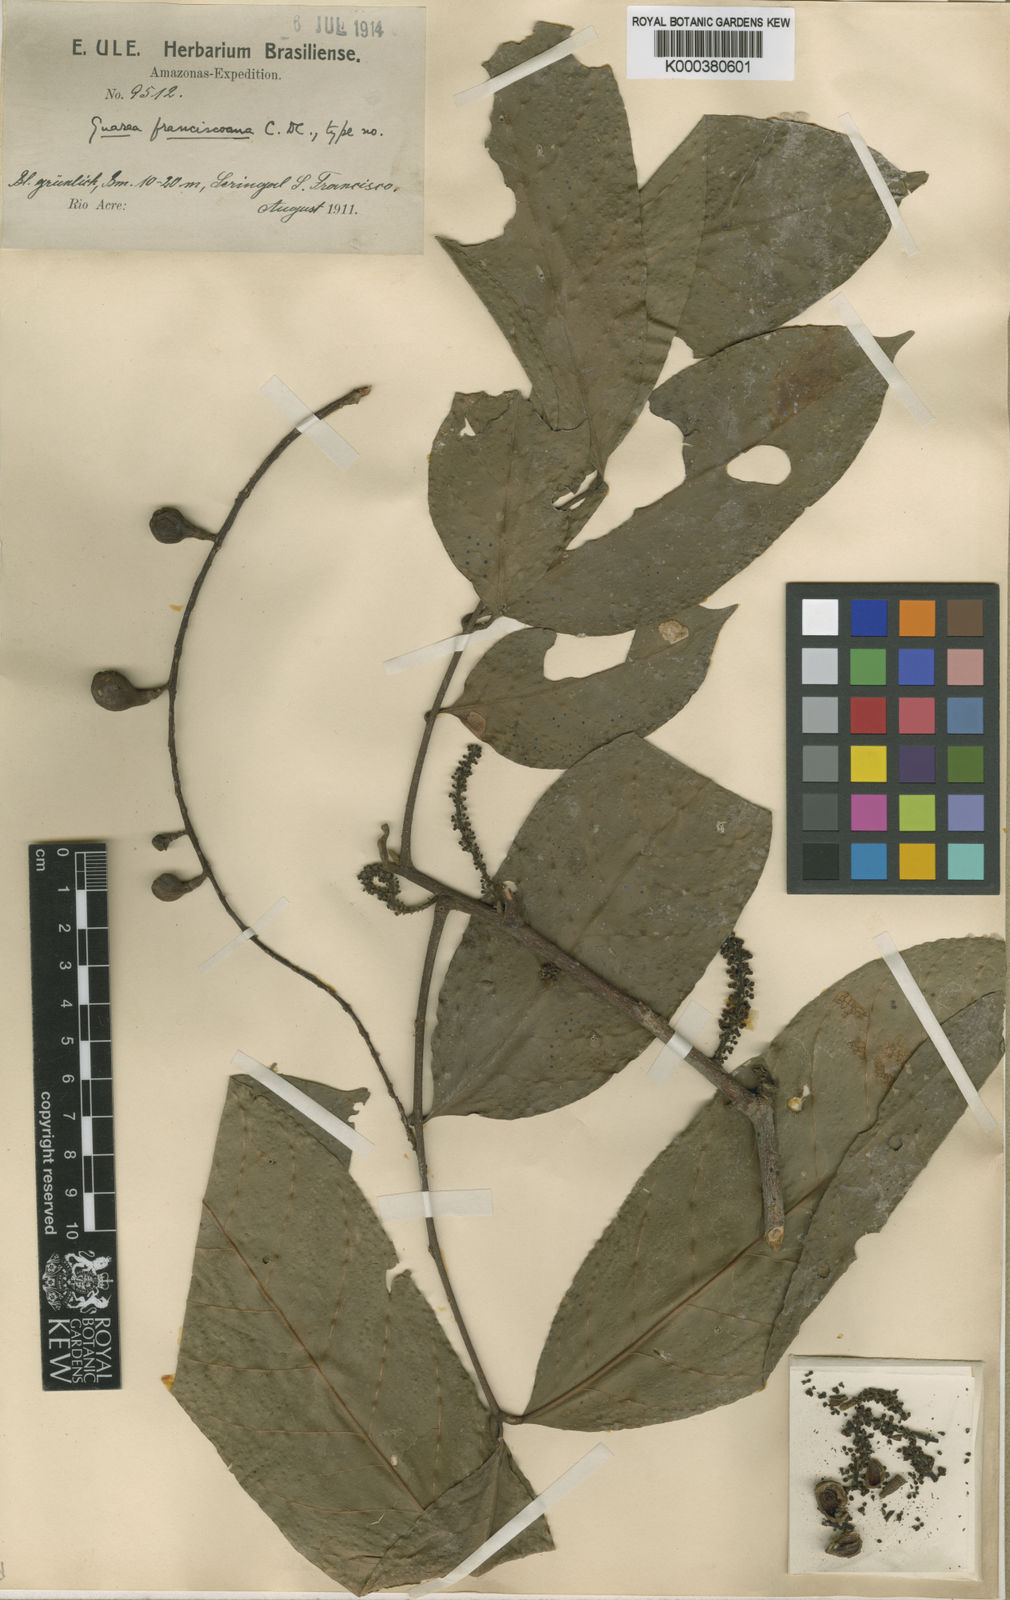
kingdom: Plantae
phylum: Tracheophyta
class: Magnoliopsida
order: Sapindales
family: Meliaceae
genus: Guarea
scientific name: Guarea macrophylla
